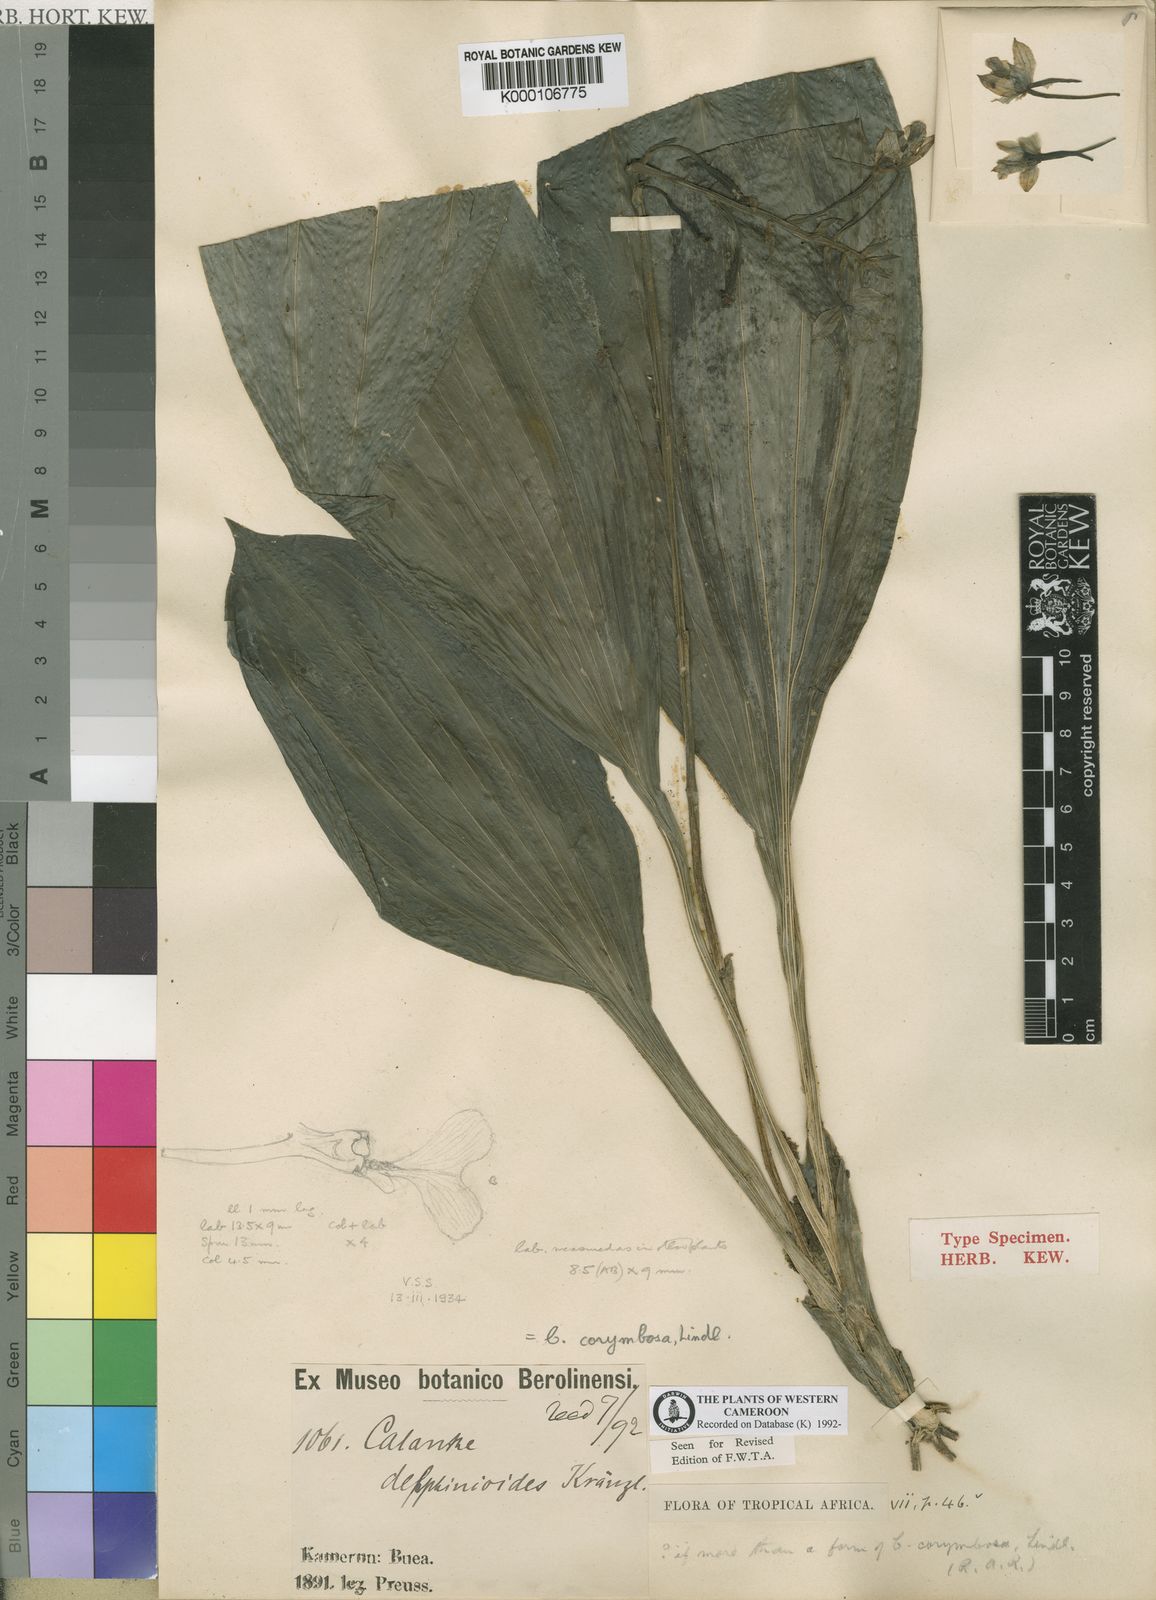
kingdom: Plantae
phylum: Tracheophyta
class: Liliopsida
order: Asparagales
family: Orchidaceae
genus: Calanthe
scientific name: Calanthe sylvatica
